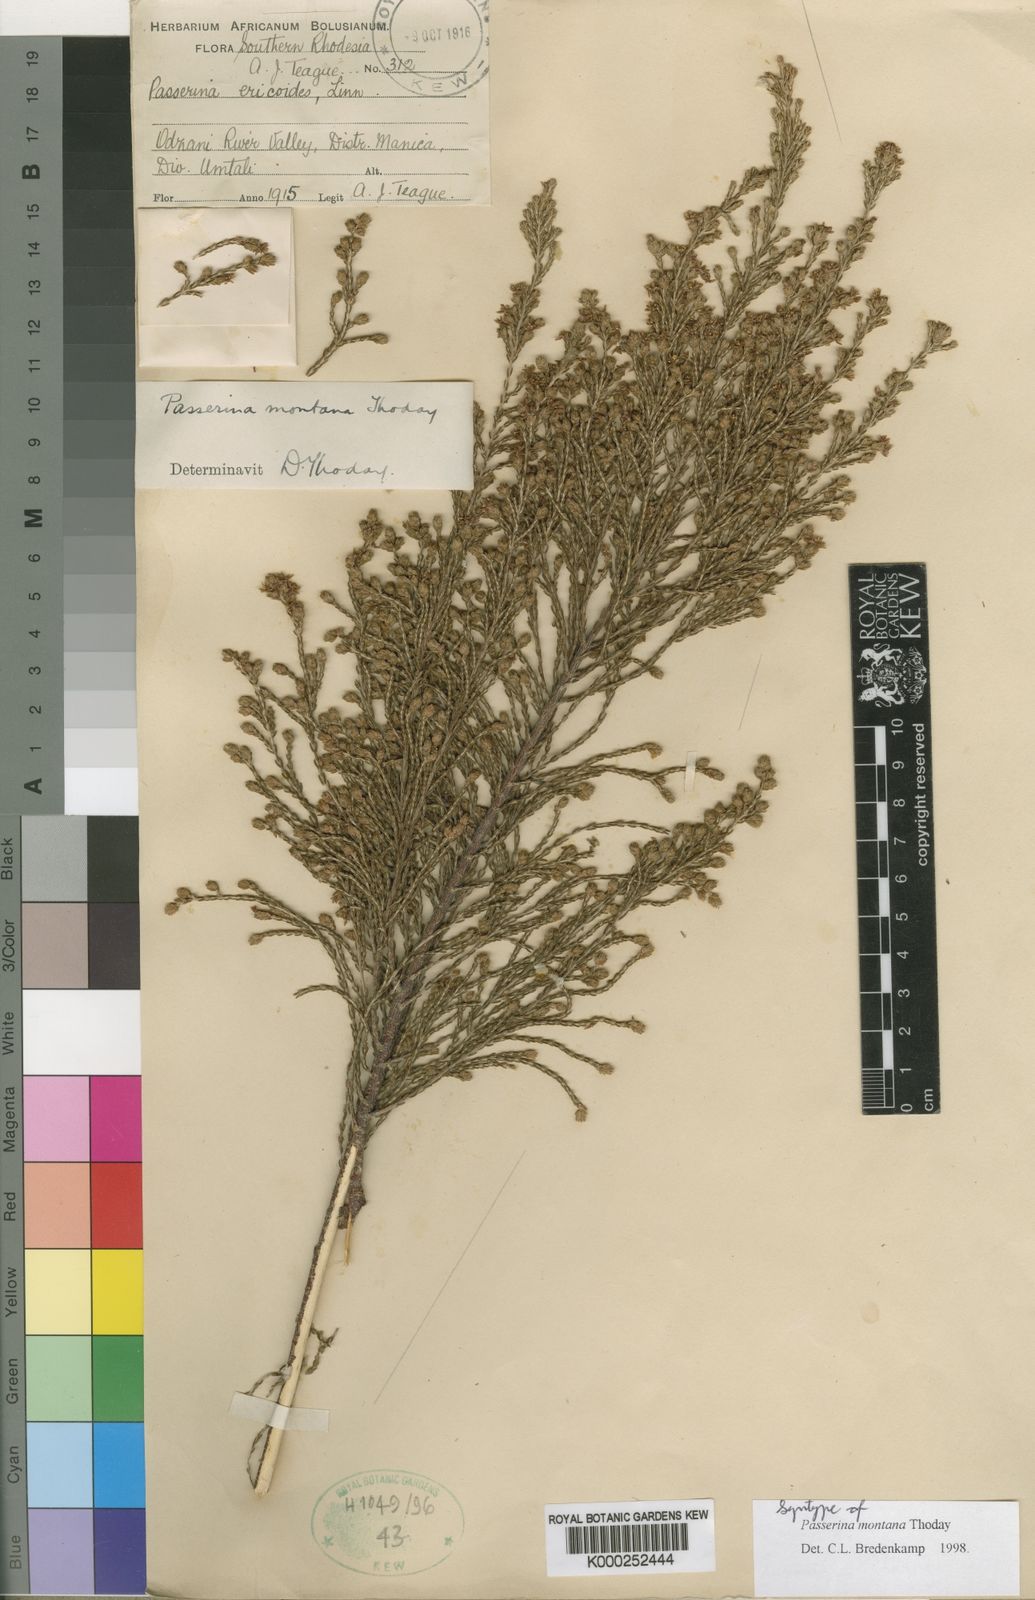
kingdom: Plantae
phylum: Tracheophyta
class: Magnoliopsida
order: Malvales
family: Thymelaeaceae
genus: Passerina
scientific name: Passerina montana
